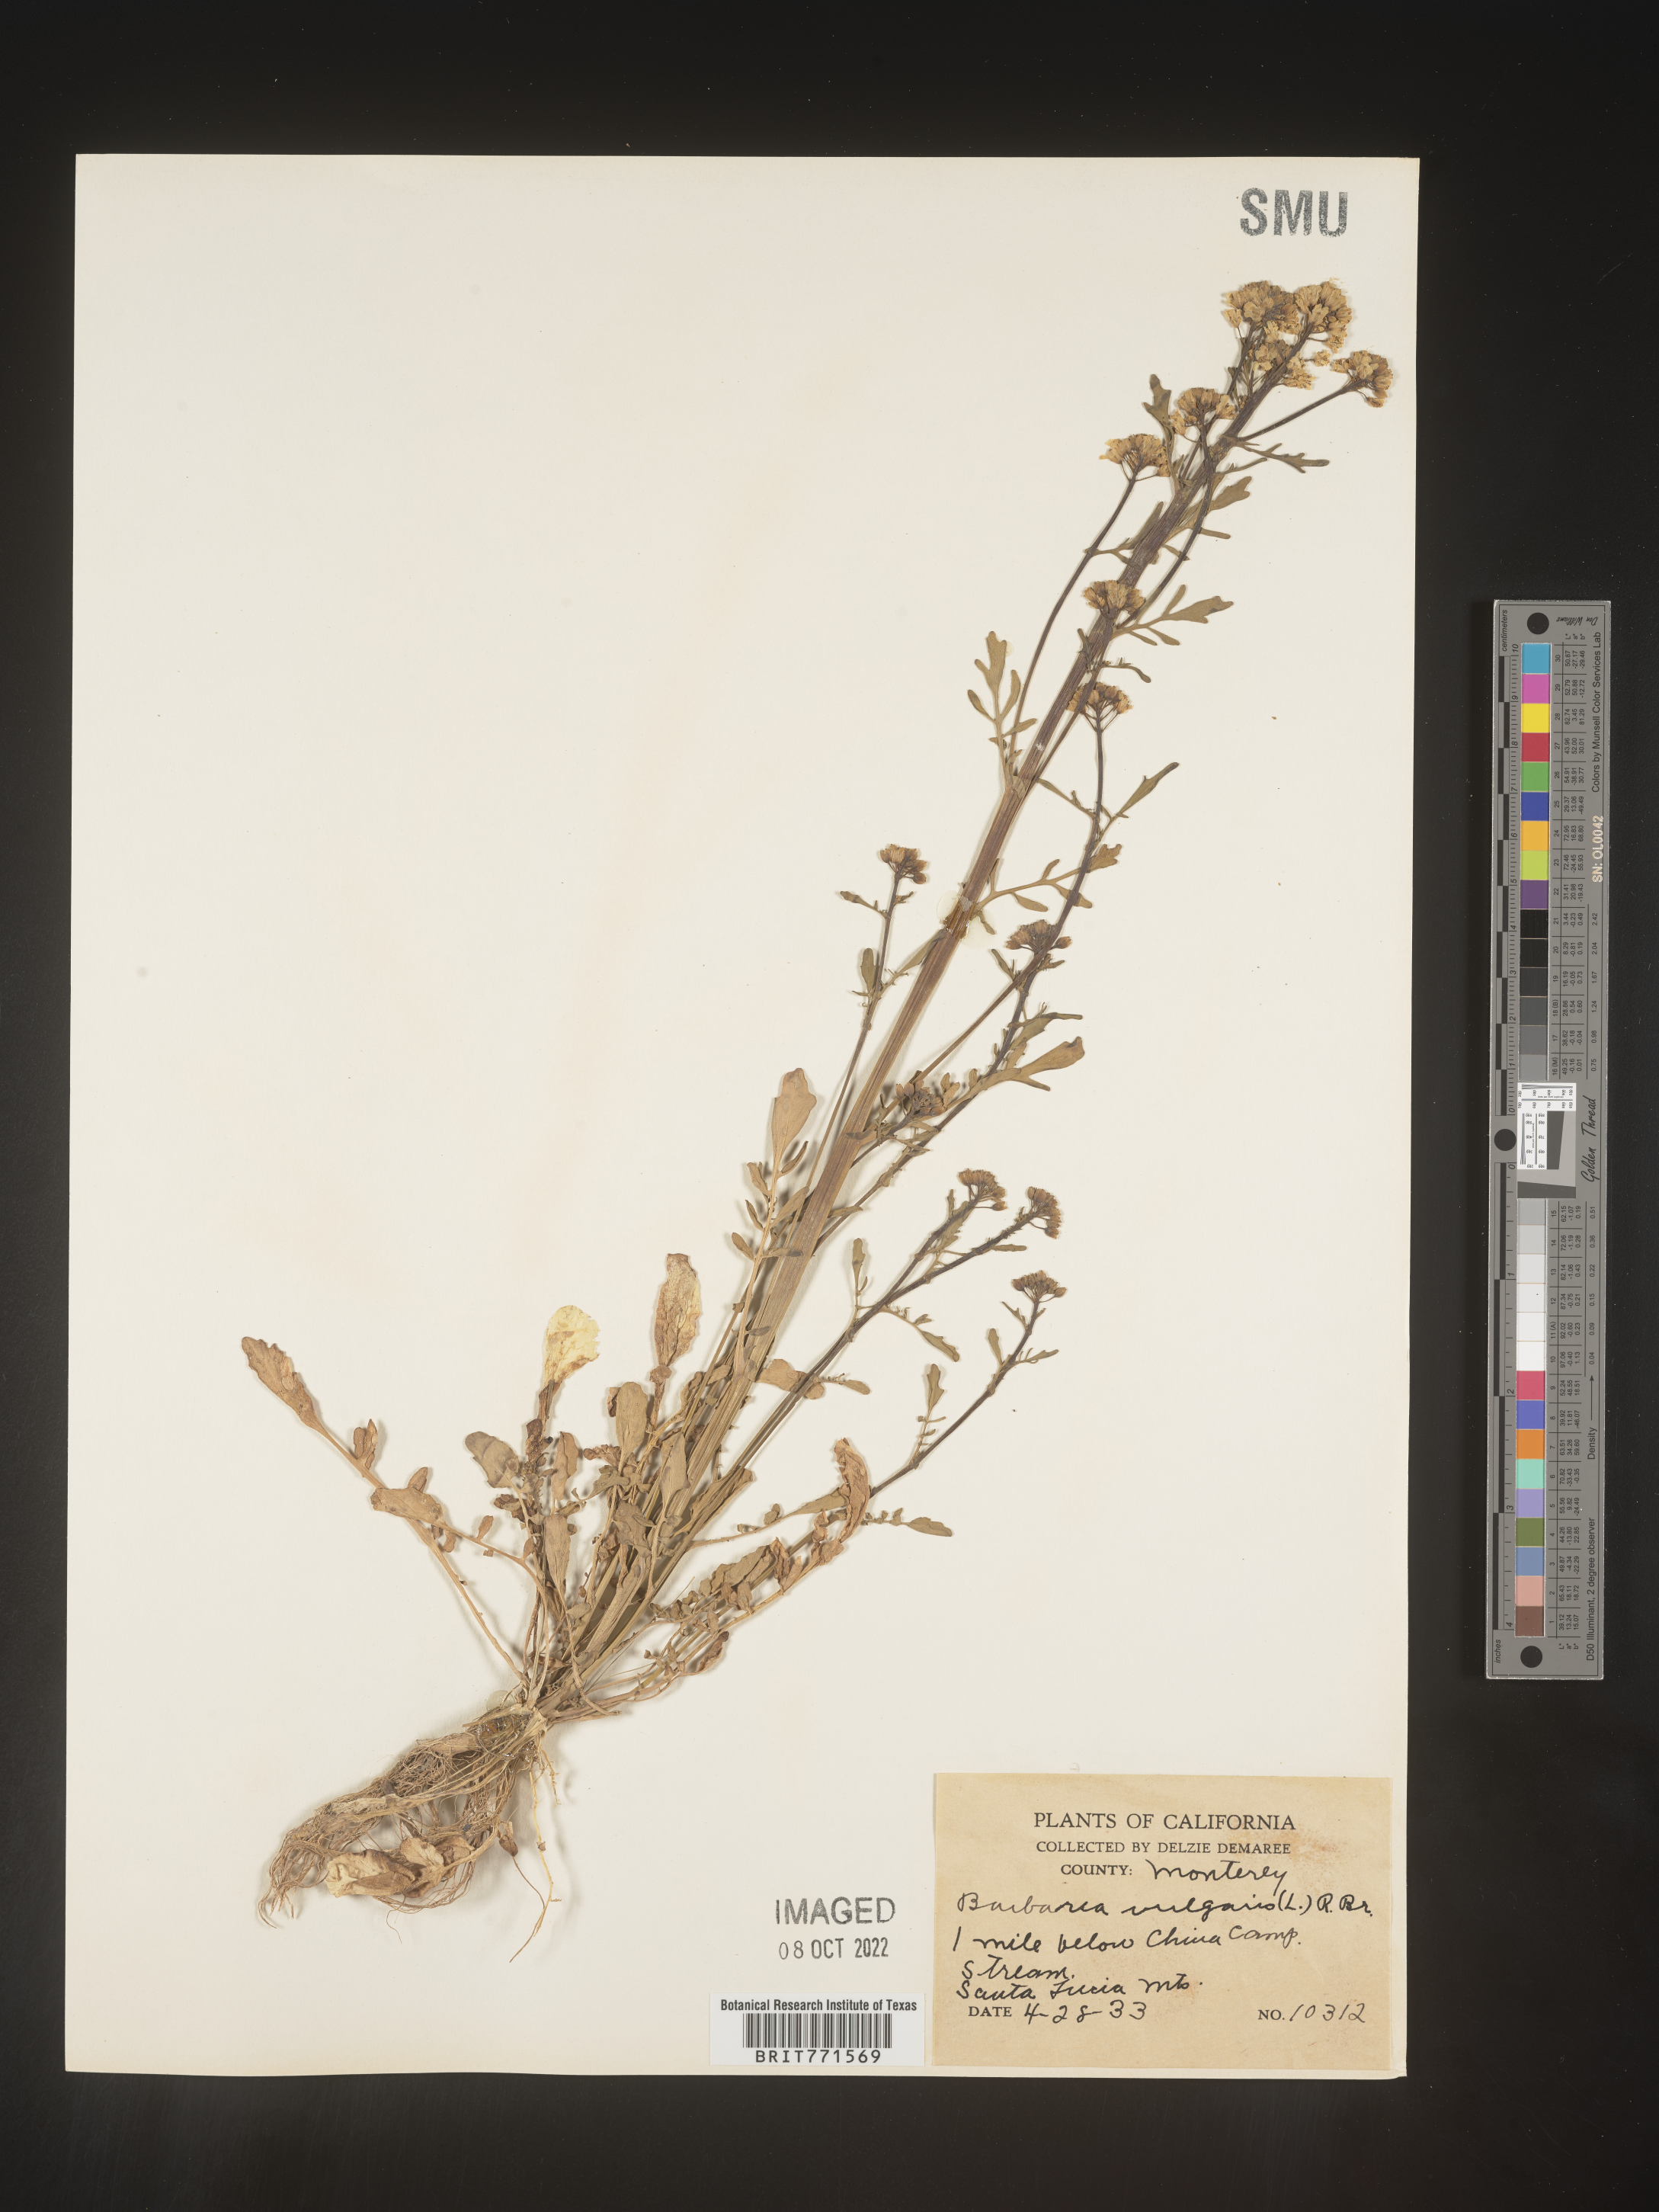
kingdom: Plantae
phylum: Tracheophyta
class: Magnoliopsida
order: Brassicales
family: Brassicaceae
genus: Barbarea
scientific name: Barbarea vulgaris
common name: Cressy-greens
